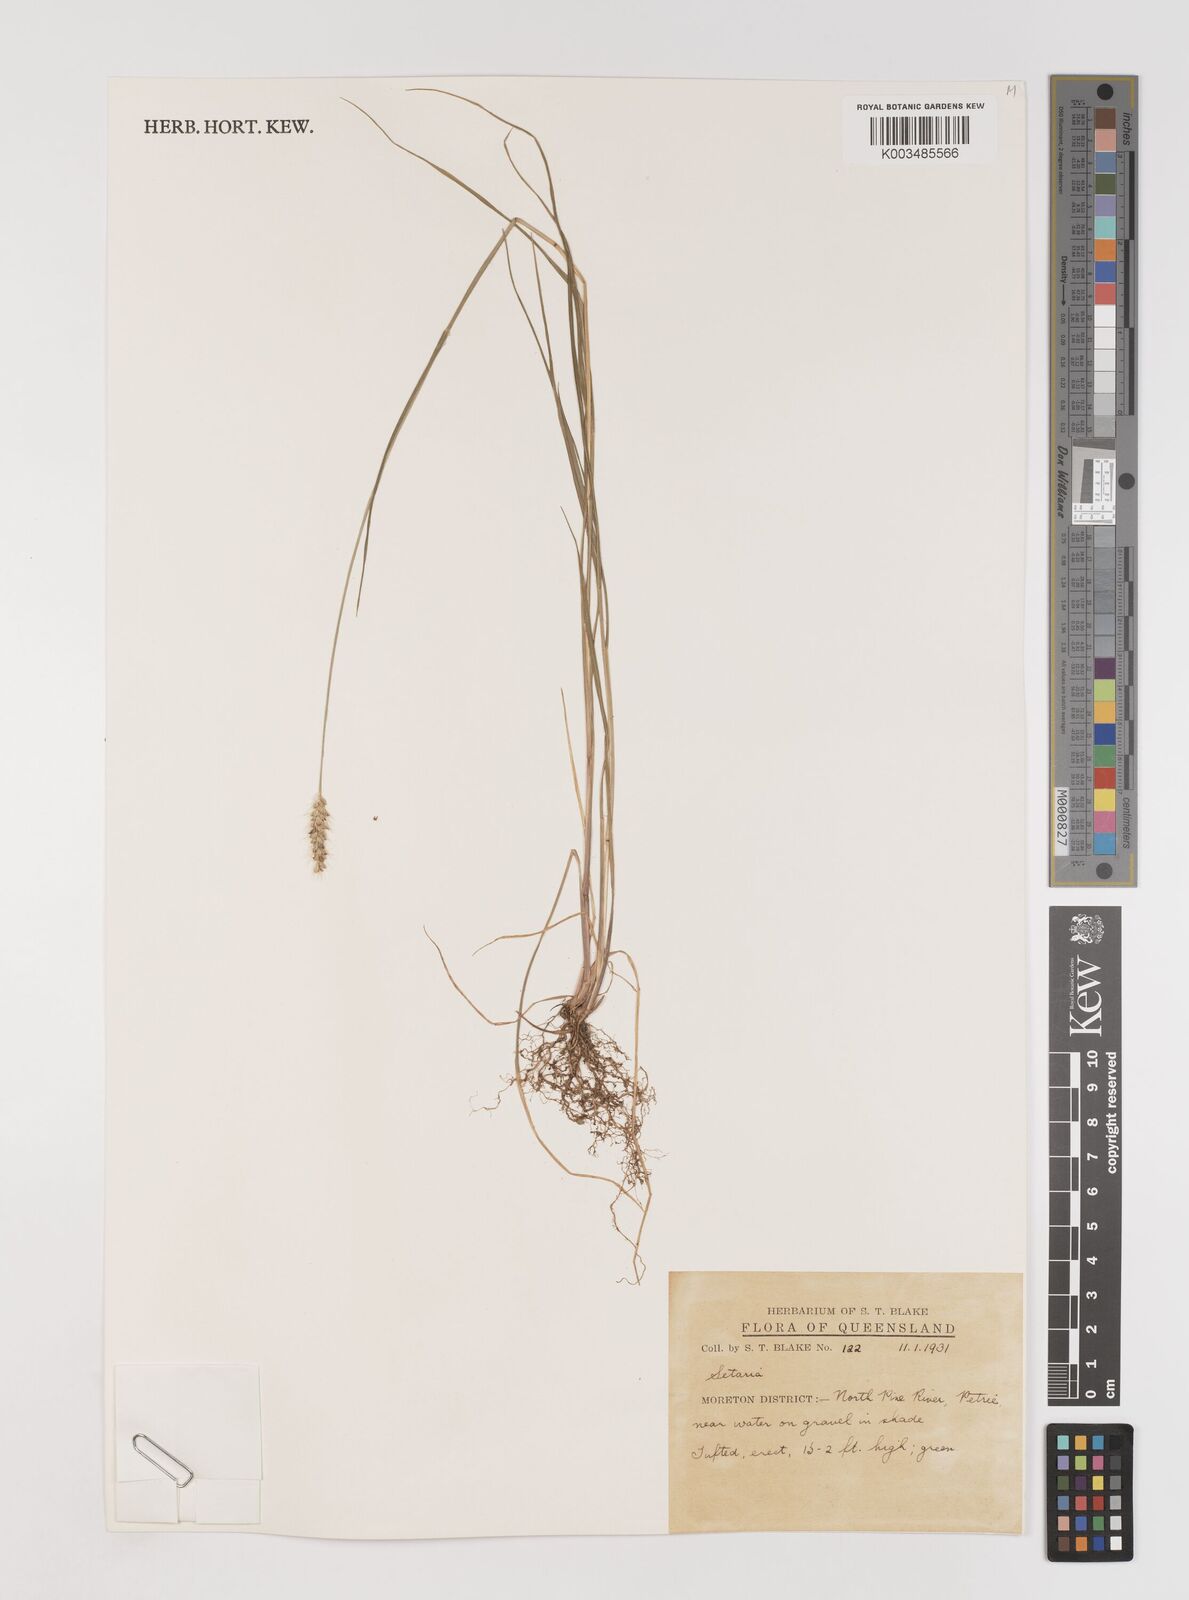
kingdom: Plantae
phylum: Tracheophyta
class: Liliopsida
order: Poales
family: Poaceae
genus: Setaria
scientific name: Setaria
